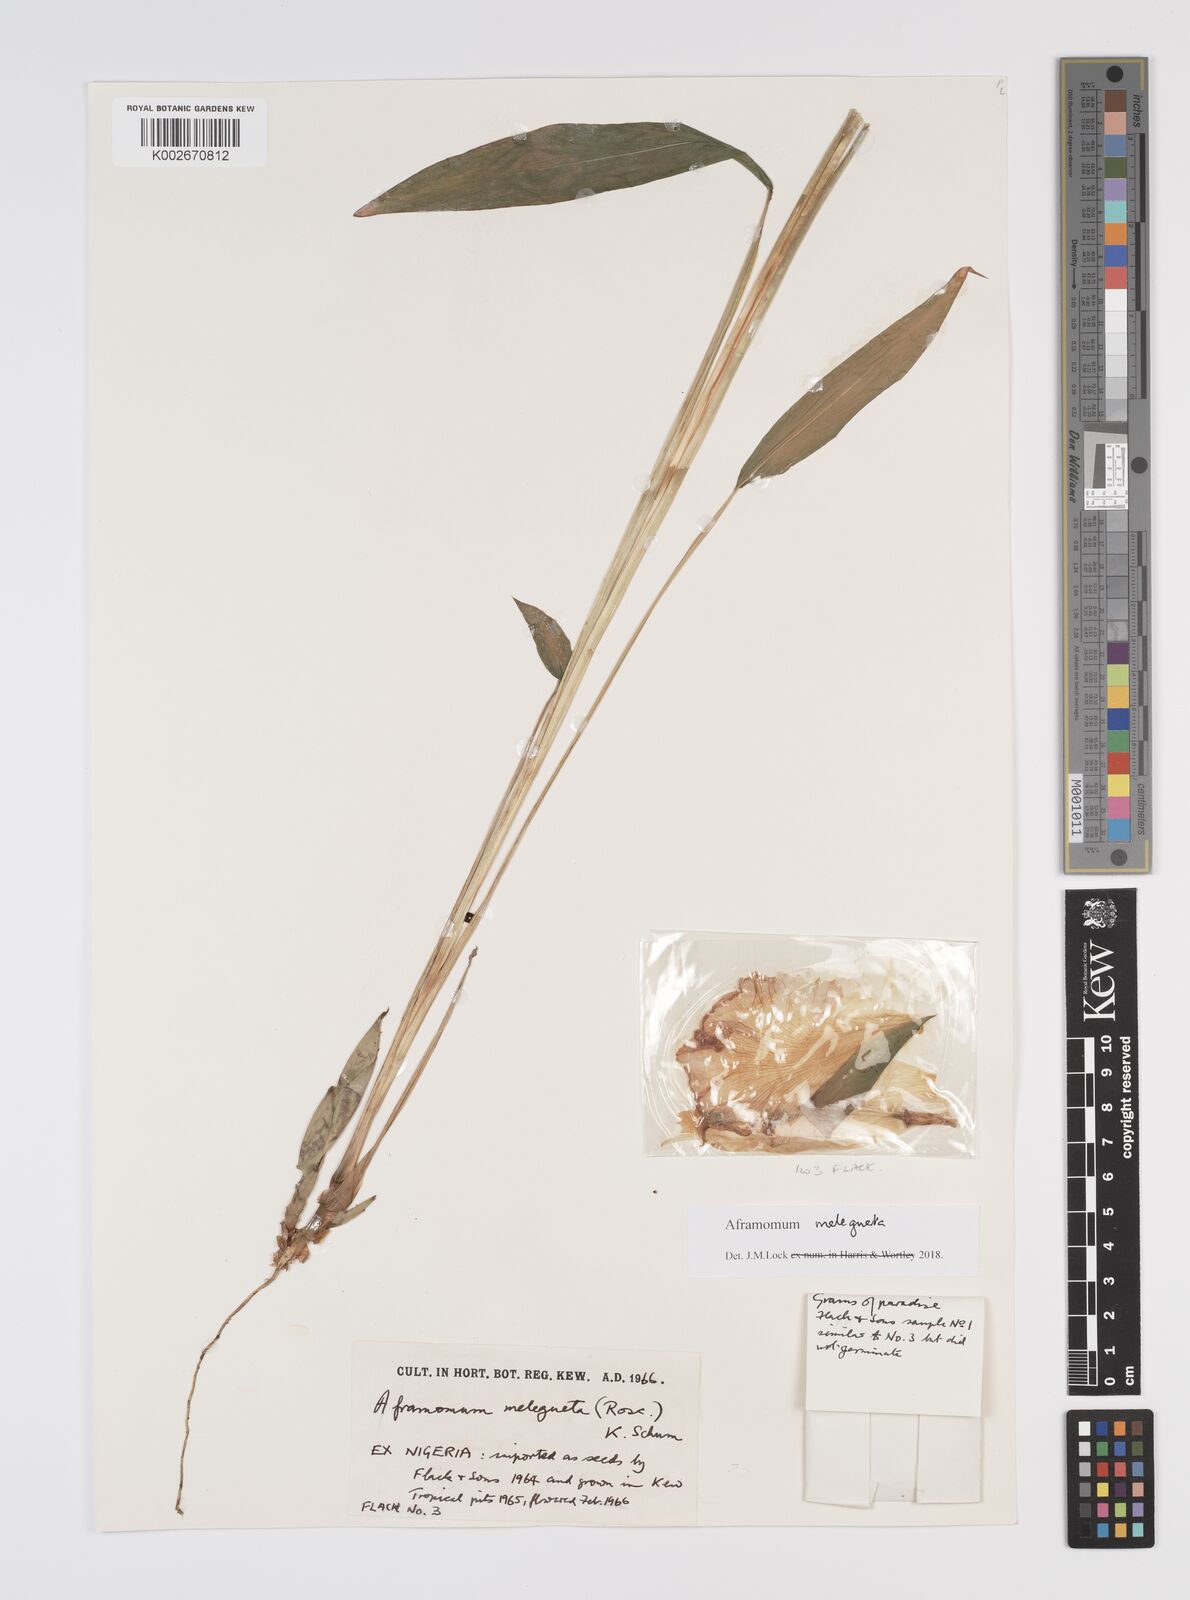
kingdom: Plantae
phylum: Tracheophyta
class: Liliopsida
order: Zingiberales
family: Zingiberaceae
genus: Aframomum
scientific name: Aframomum melegueta
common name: Grains of paradise
